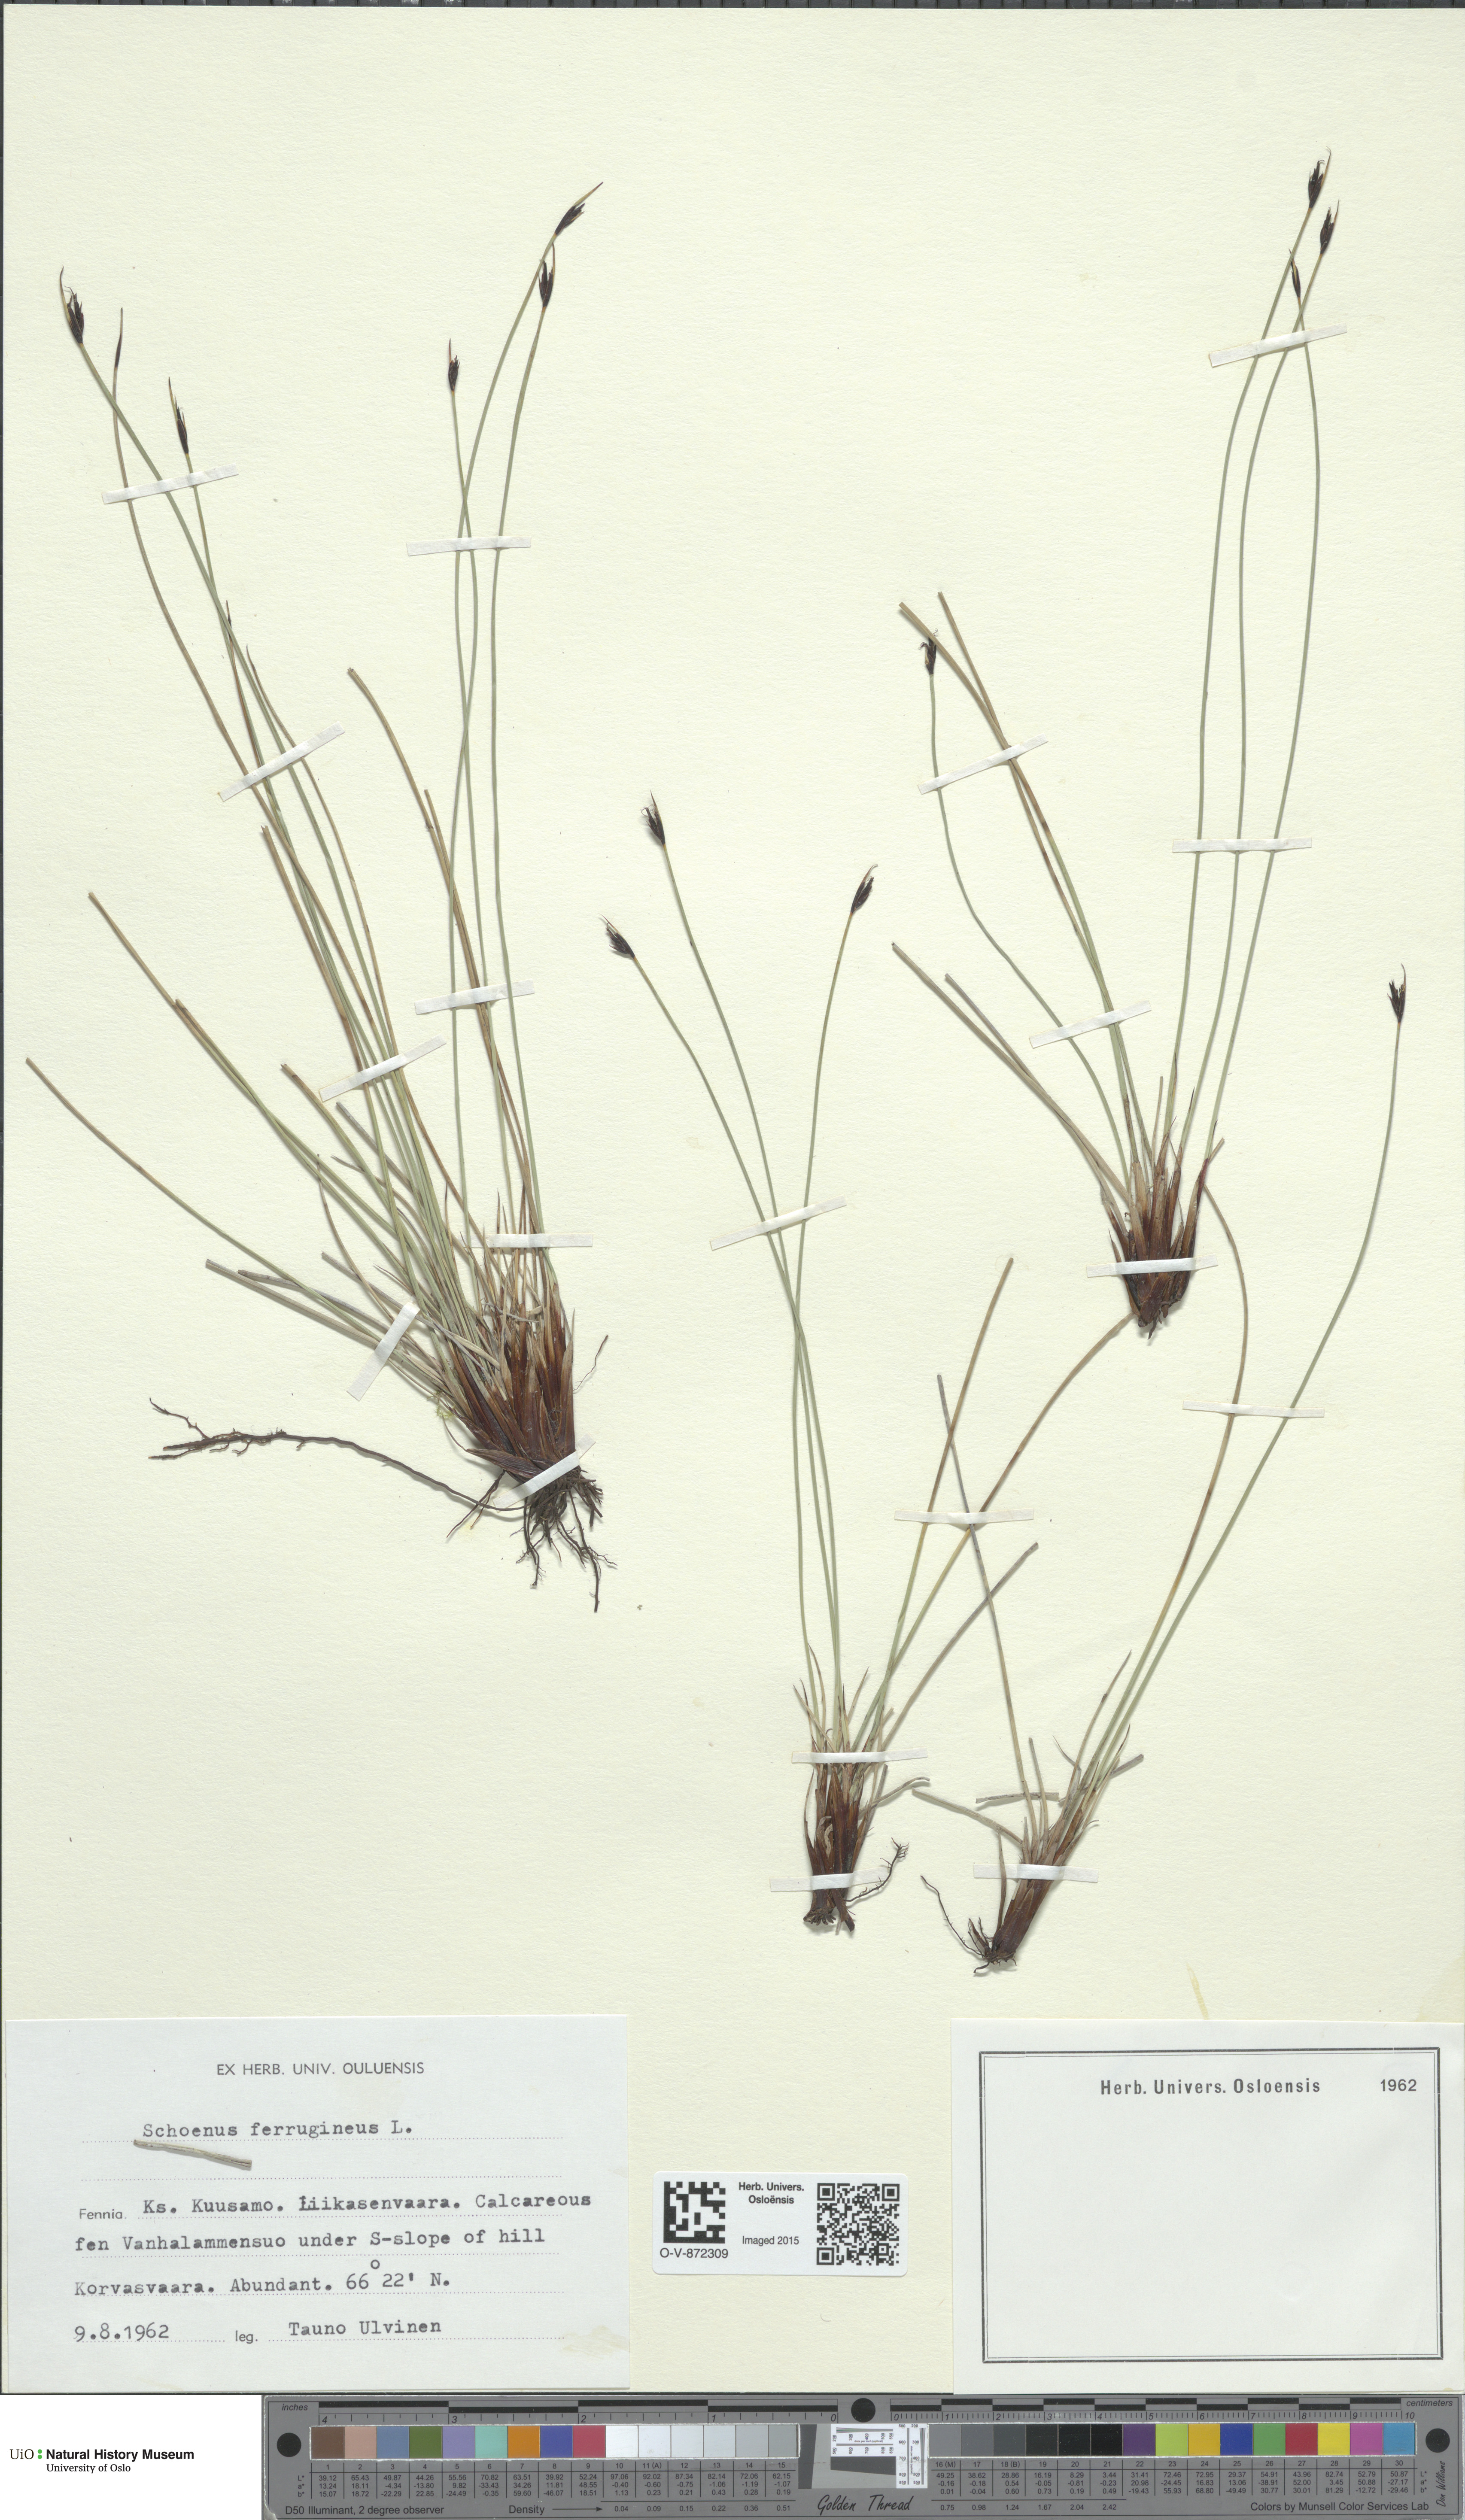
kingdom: Plantae
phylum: Tracheophyta
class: Liliopsida
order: Poales
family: Cyperaceae
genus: Schoenus
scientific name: Schoenus ferrugineus
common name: Brown bog-rush
